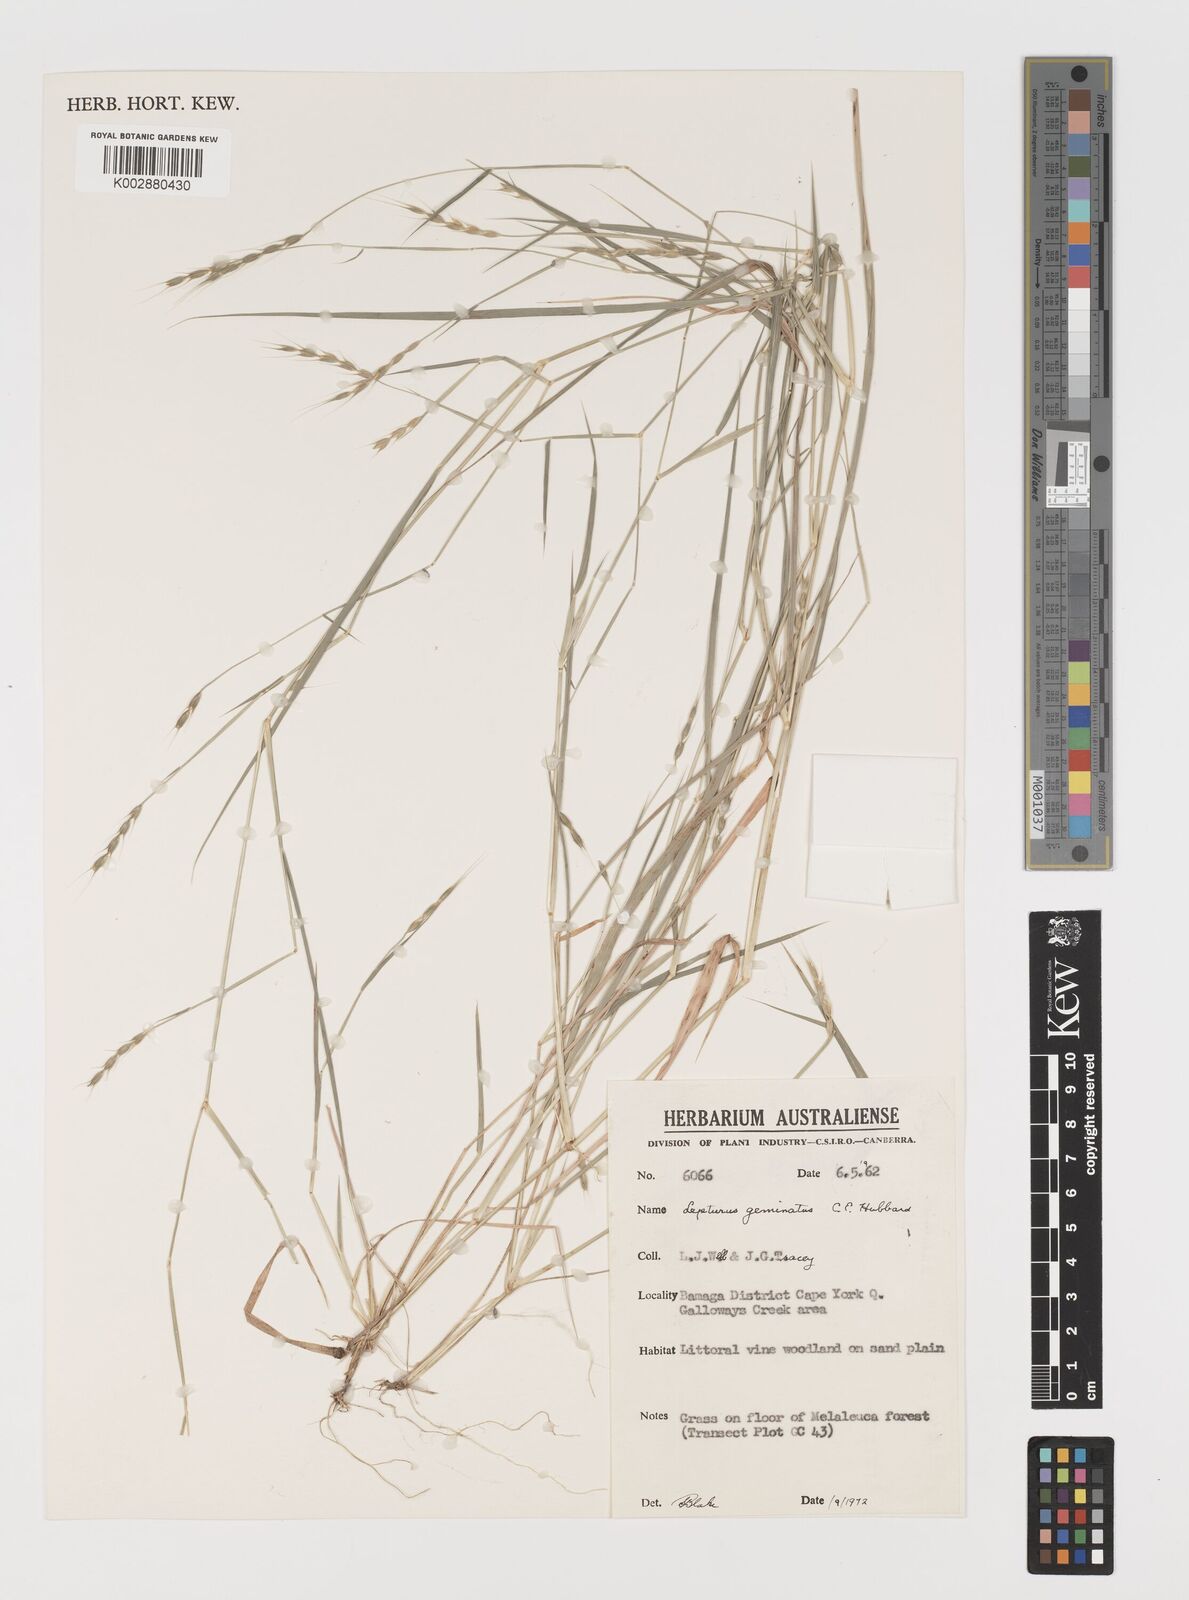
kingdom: Plantae
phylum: Tracheophyta
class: Liliopsida
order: Poales
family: Poaceae
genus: Lepturus
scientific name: Lepturus geminatus
